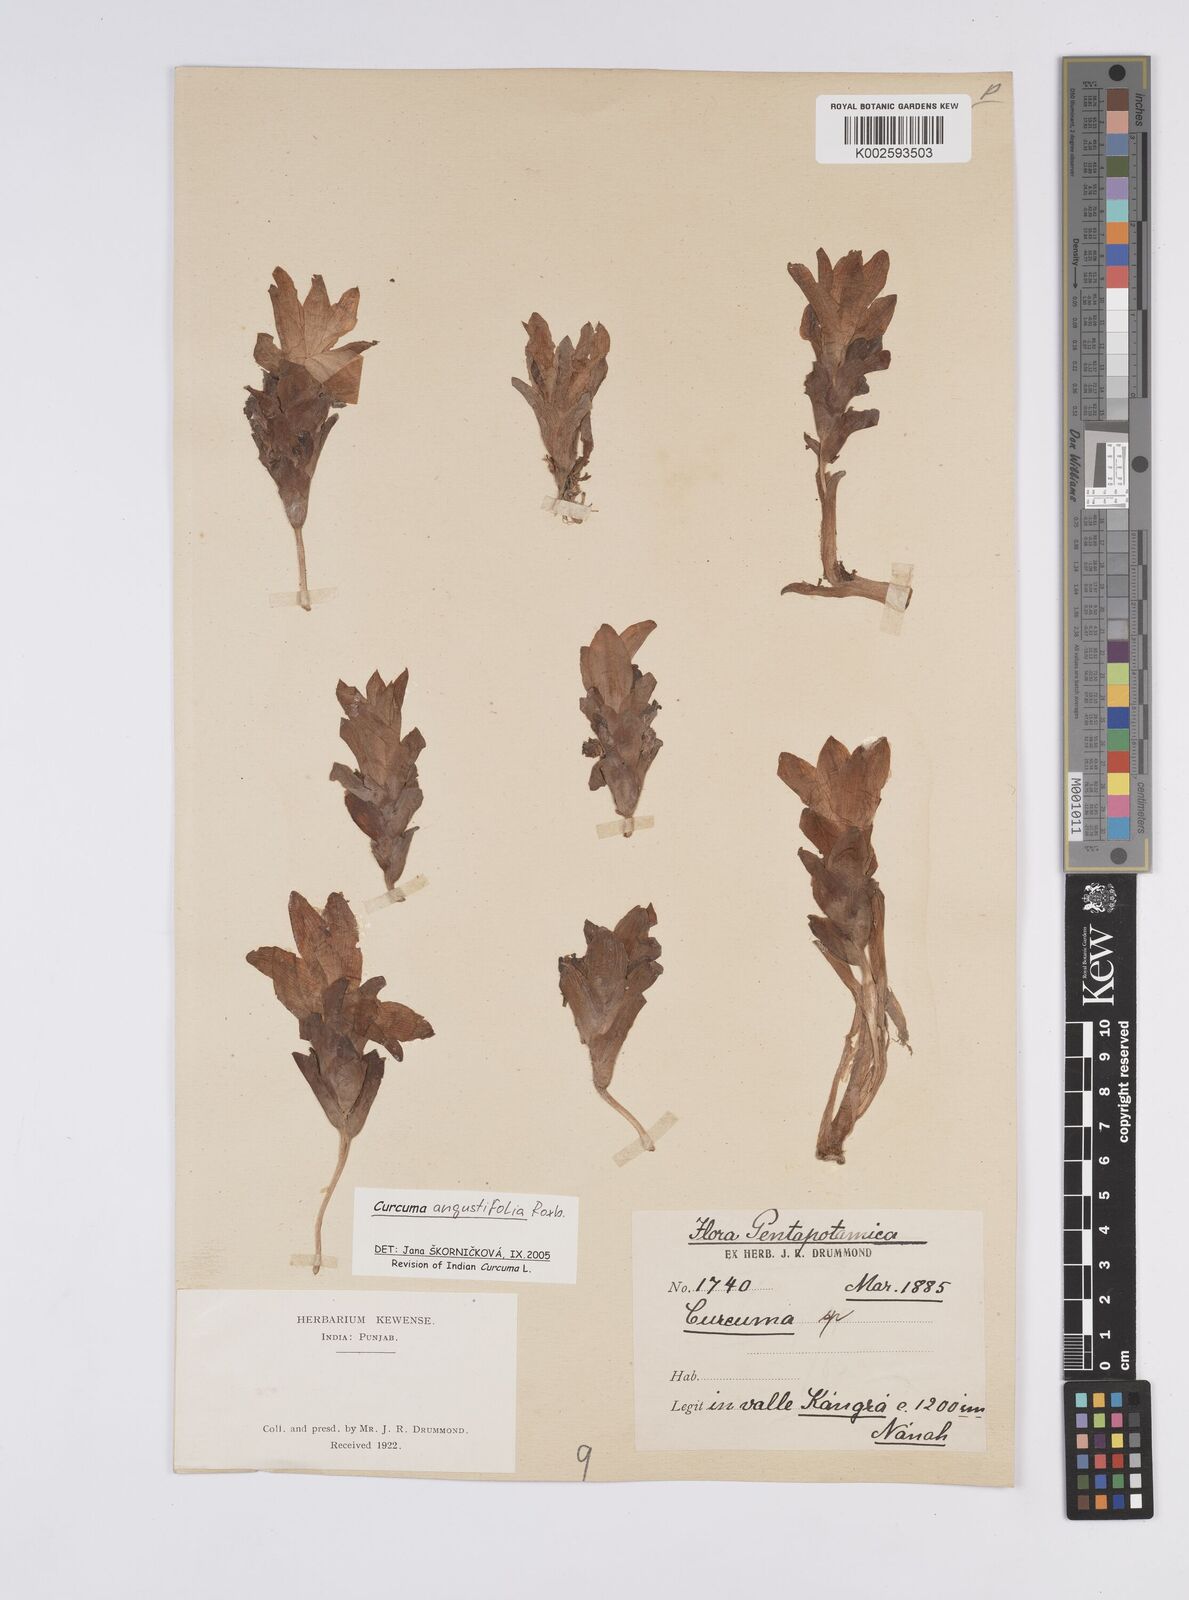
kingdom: Plantae
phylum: Tracheophyta
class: Liliopsida
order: Zingiberales
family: Zingiberaceae
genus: Curcuma
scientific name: Curcuma angustifolia
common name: East indian arrowroot
